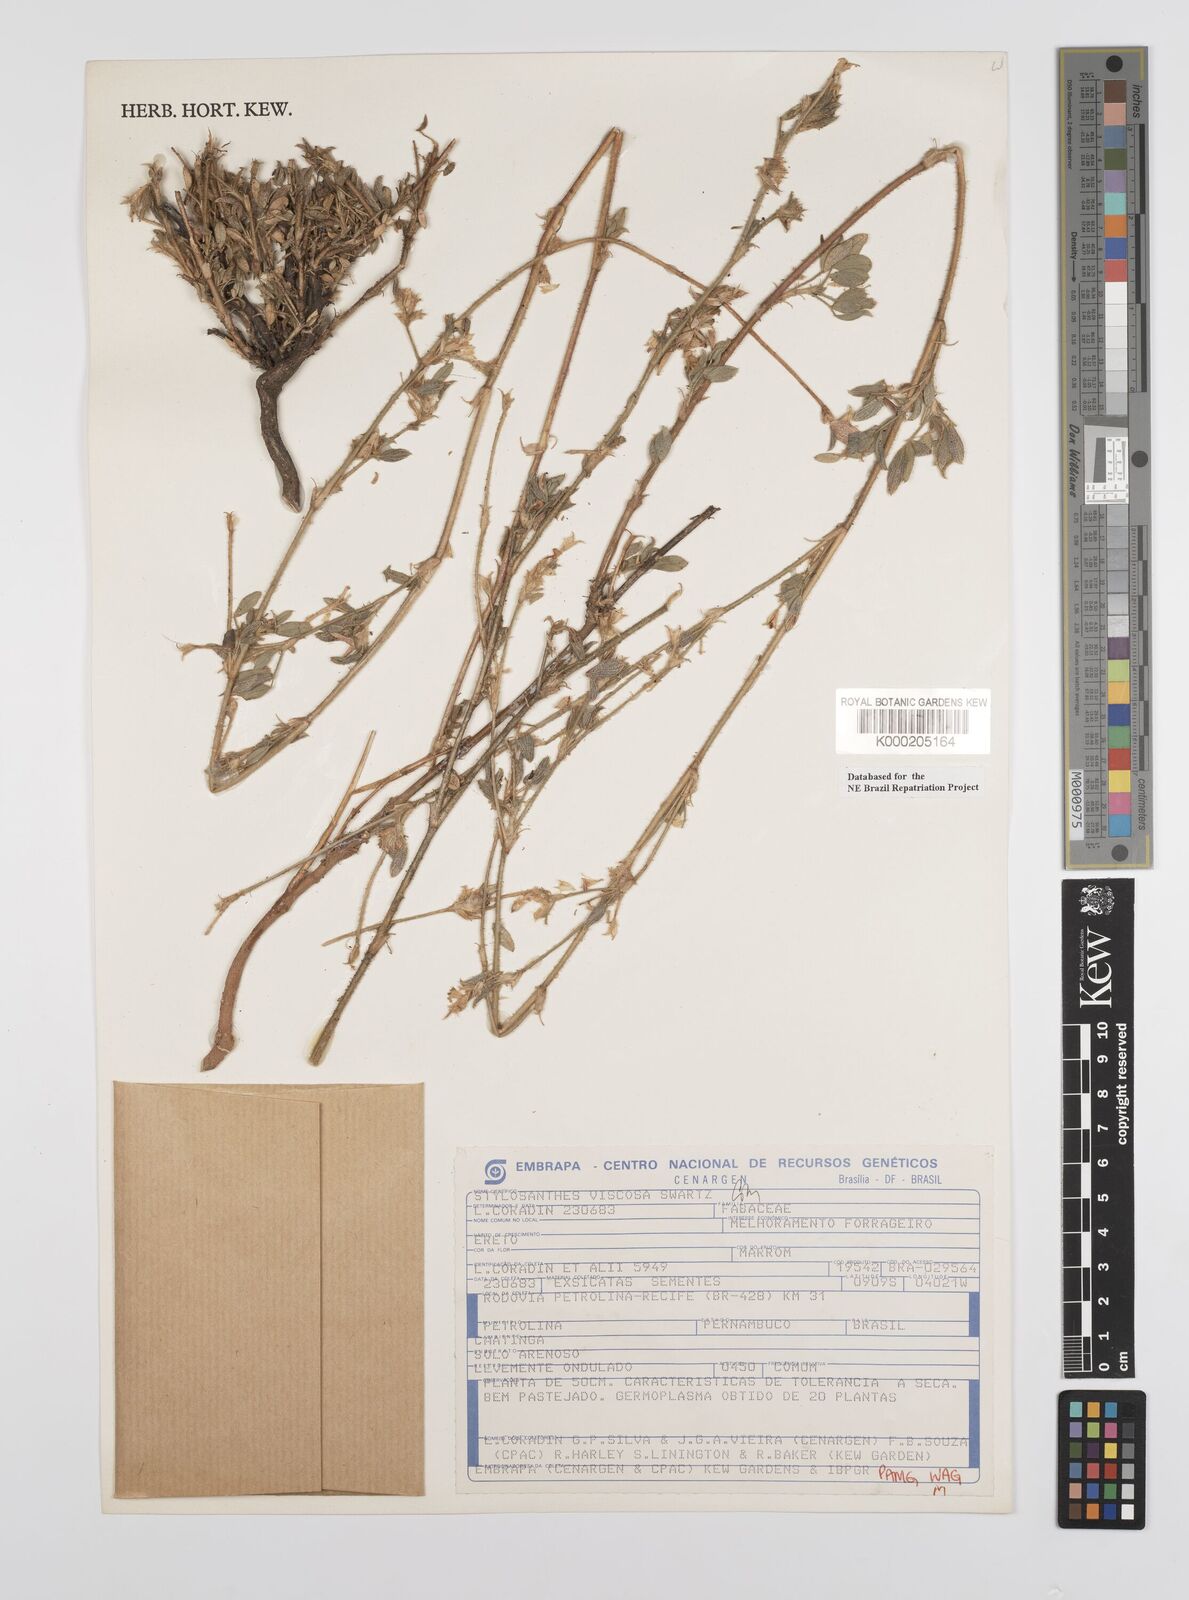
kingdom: Plantae
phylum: Tracheophyta
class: Magnoliopsida
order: Fabales
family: Fabaceae
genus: Stylosanthes
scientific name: Stylosanthes viscosa
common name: Viscid pencil-flower
